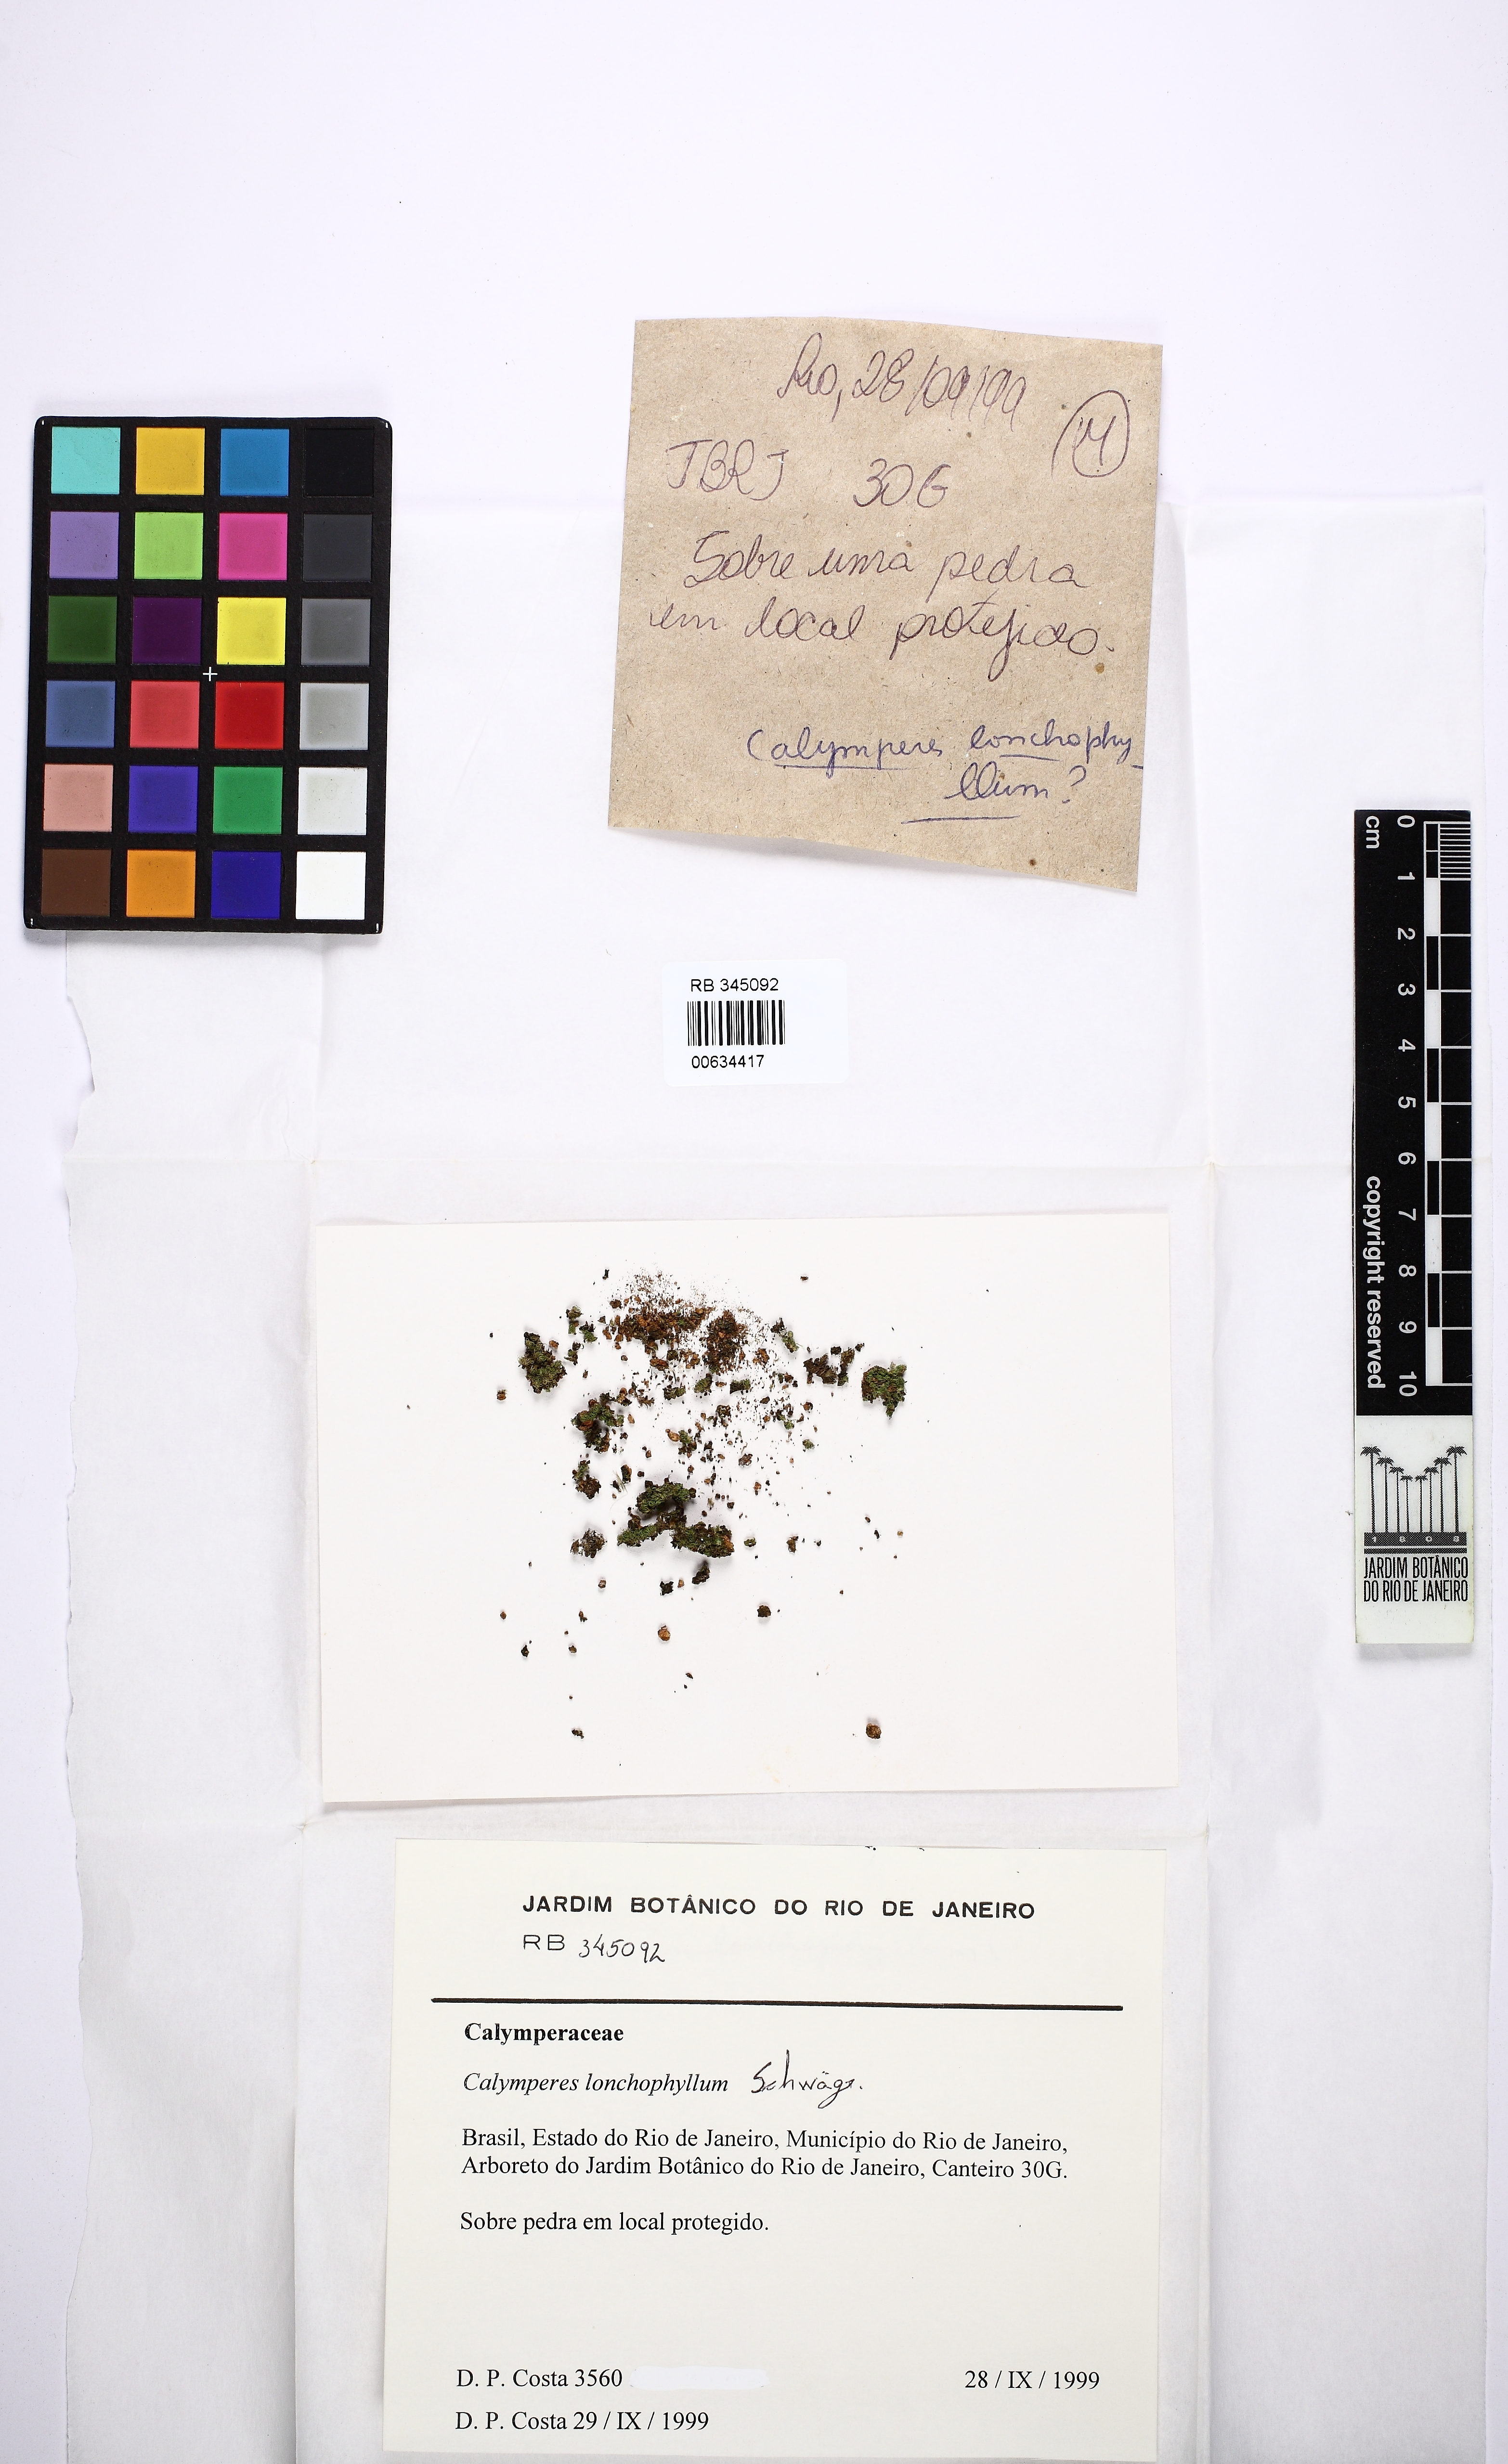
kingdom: Plantae
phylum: Bryophyta
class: Bryopsida
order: Dicranales
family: Calymperaceae
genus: Calymperes
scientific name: Calymperes lonchophyllum
